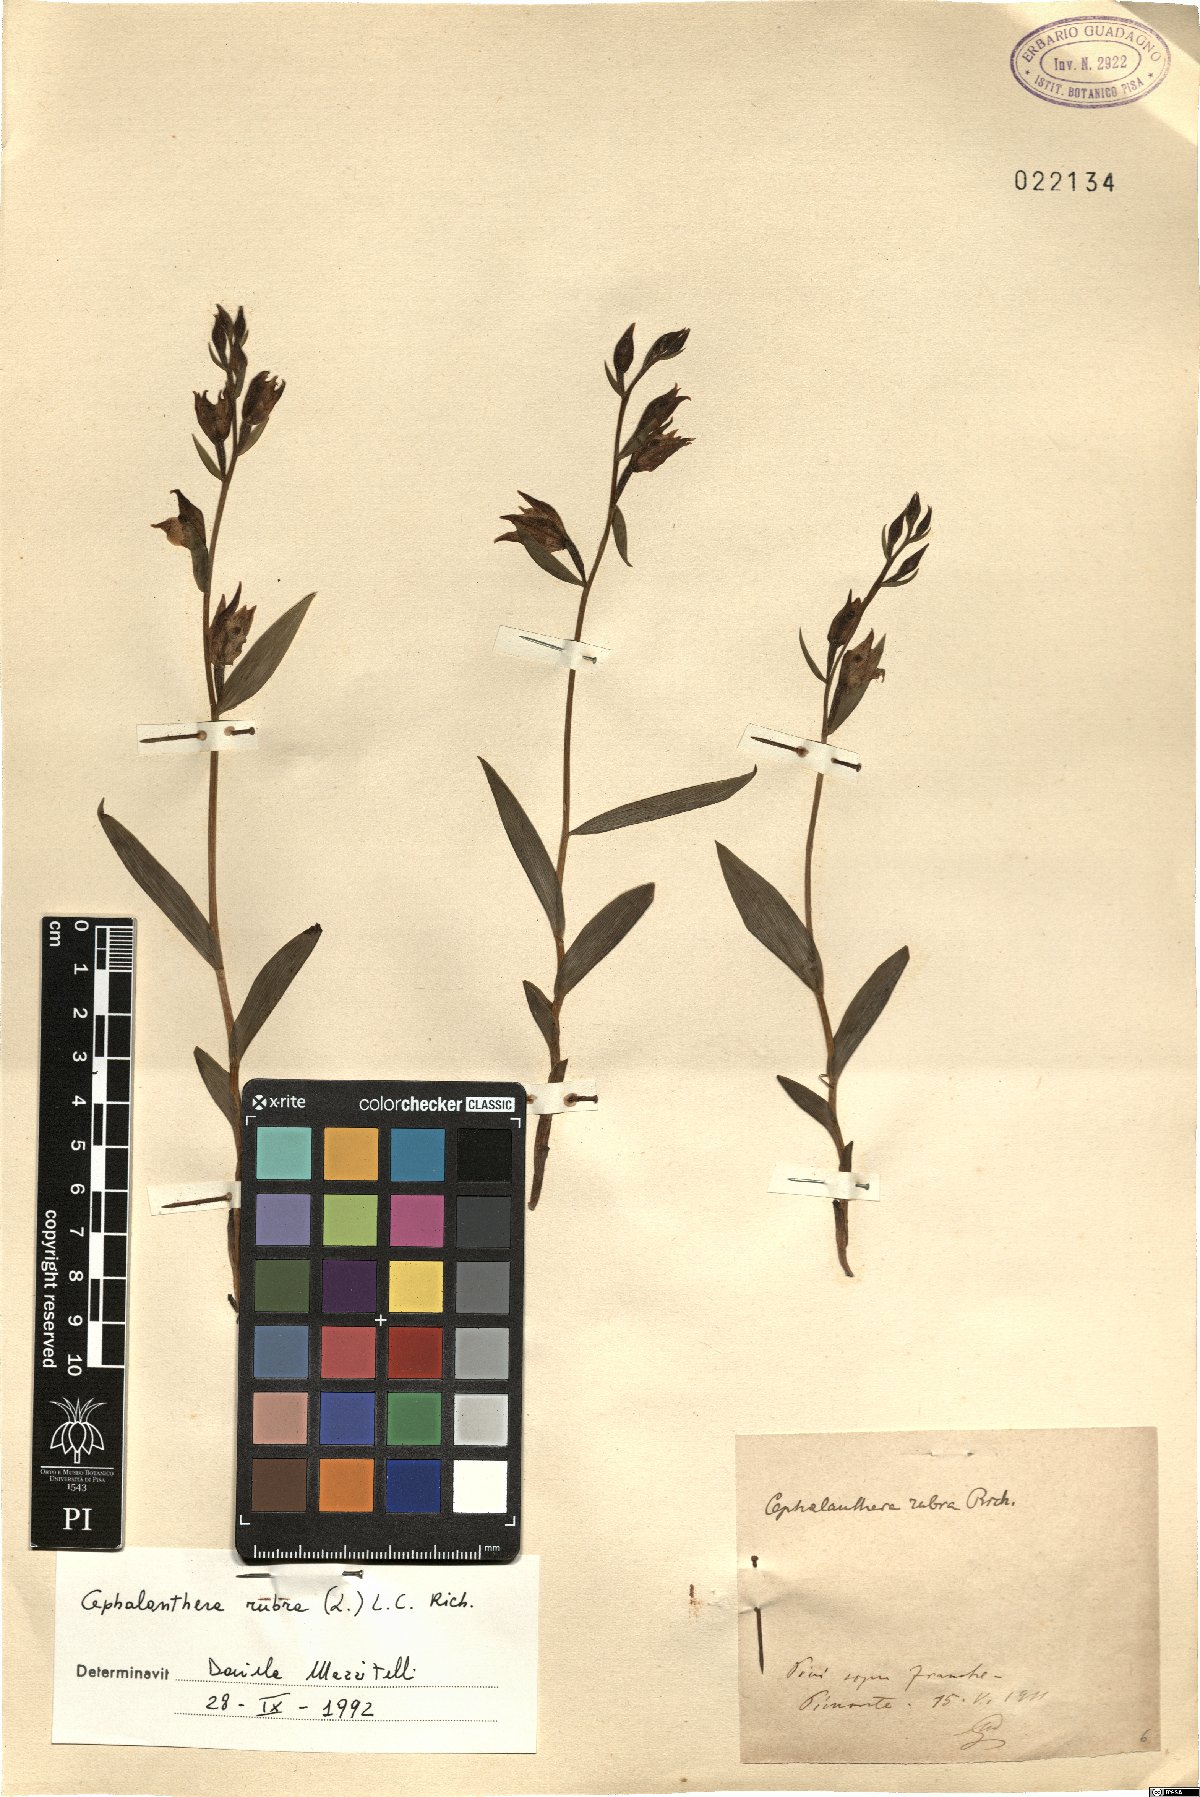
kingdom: Plantae
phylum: Tracheophyta
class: Liliopsida
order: Asparagales
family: Orchidaceae
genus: Cephalanthera
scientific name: Cephalanthera rubra
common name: Red helleborine
